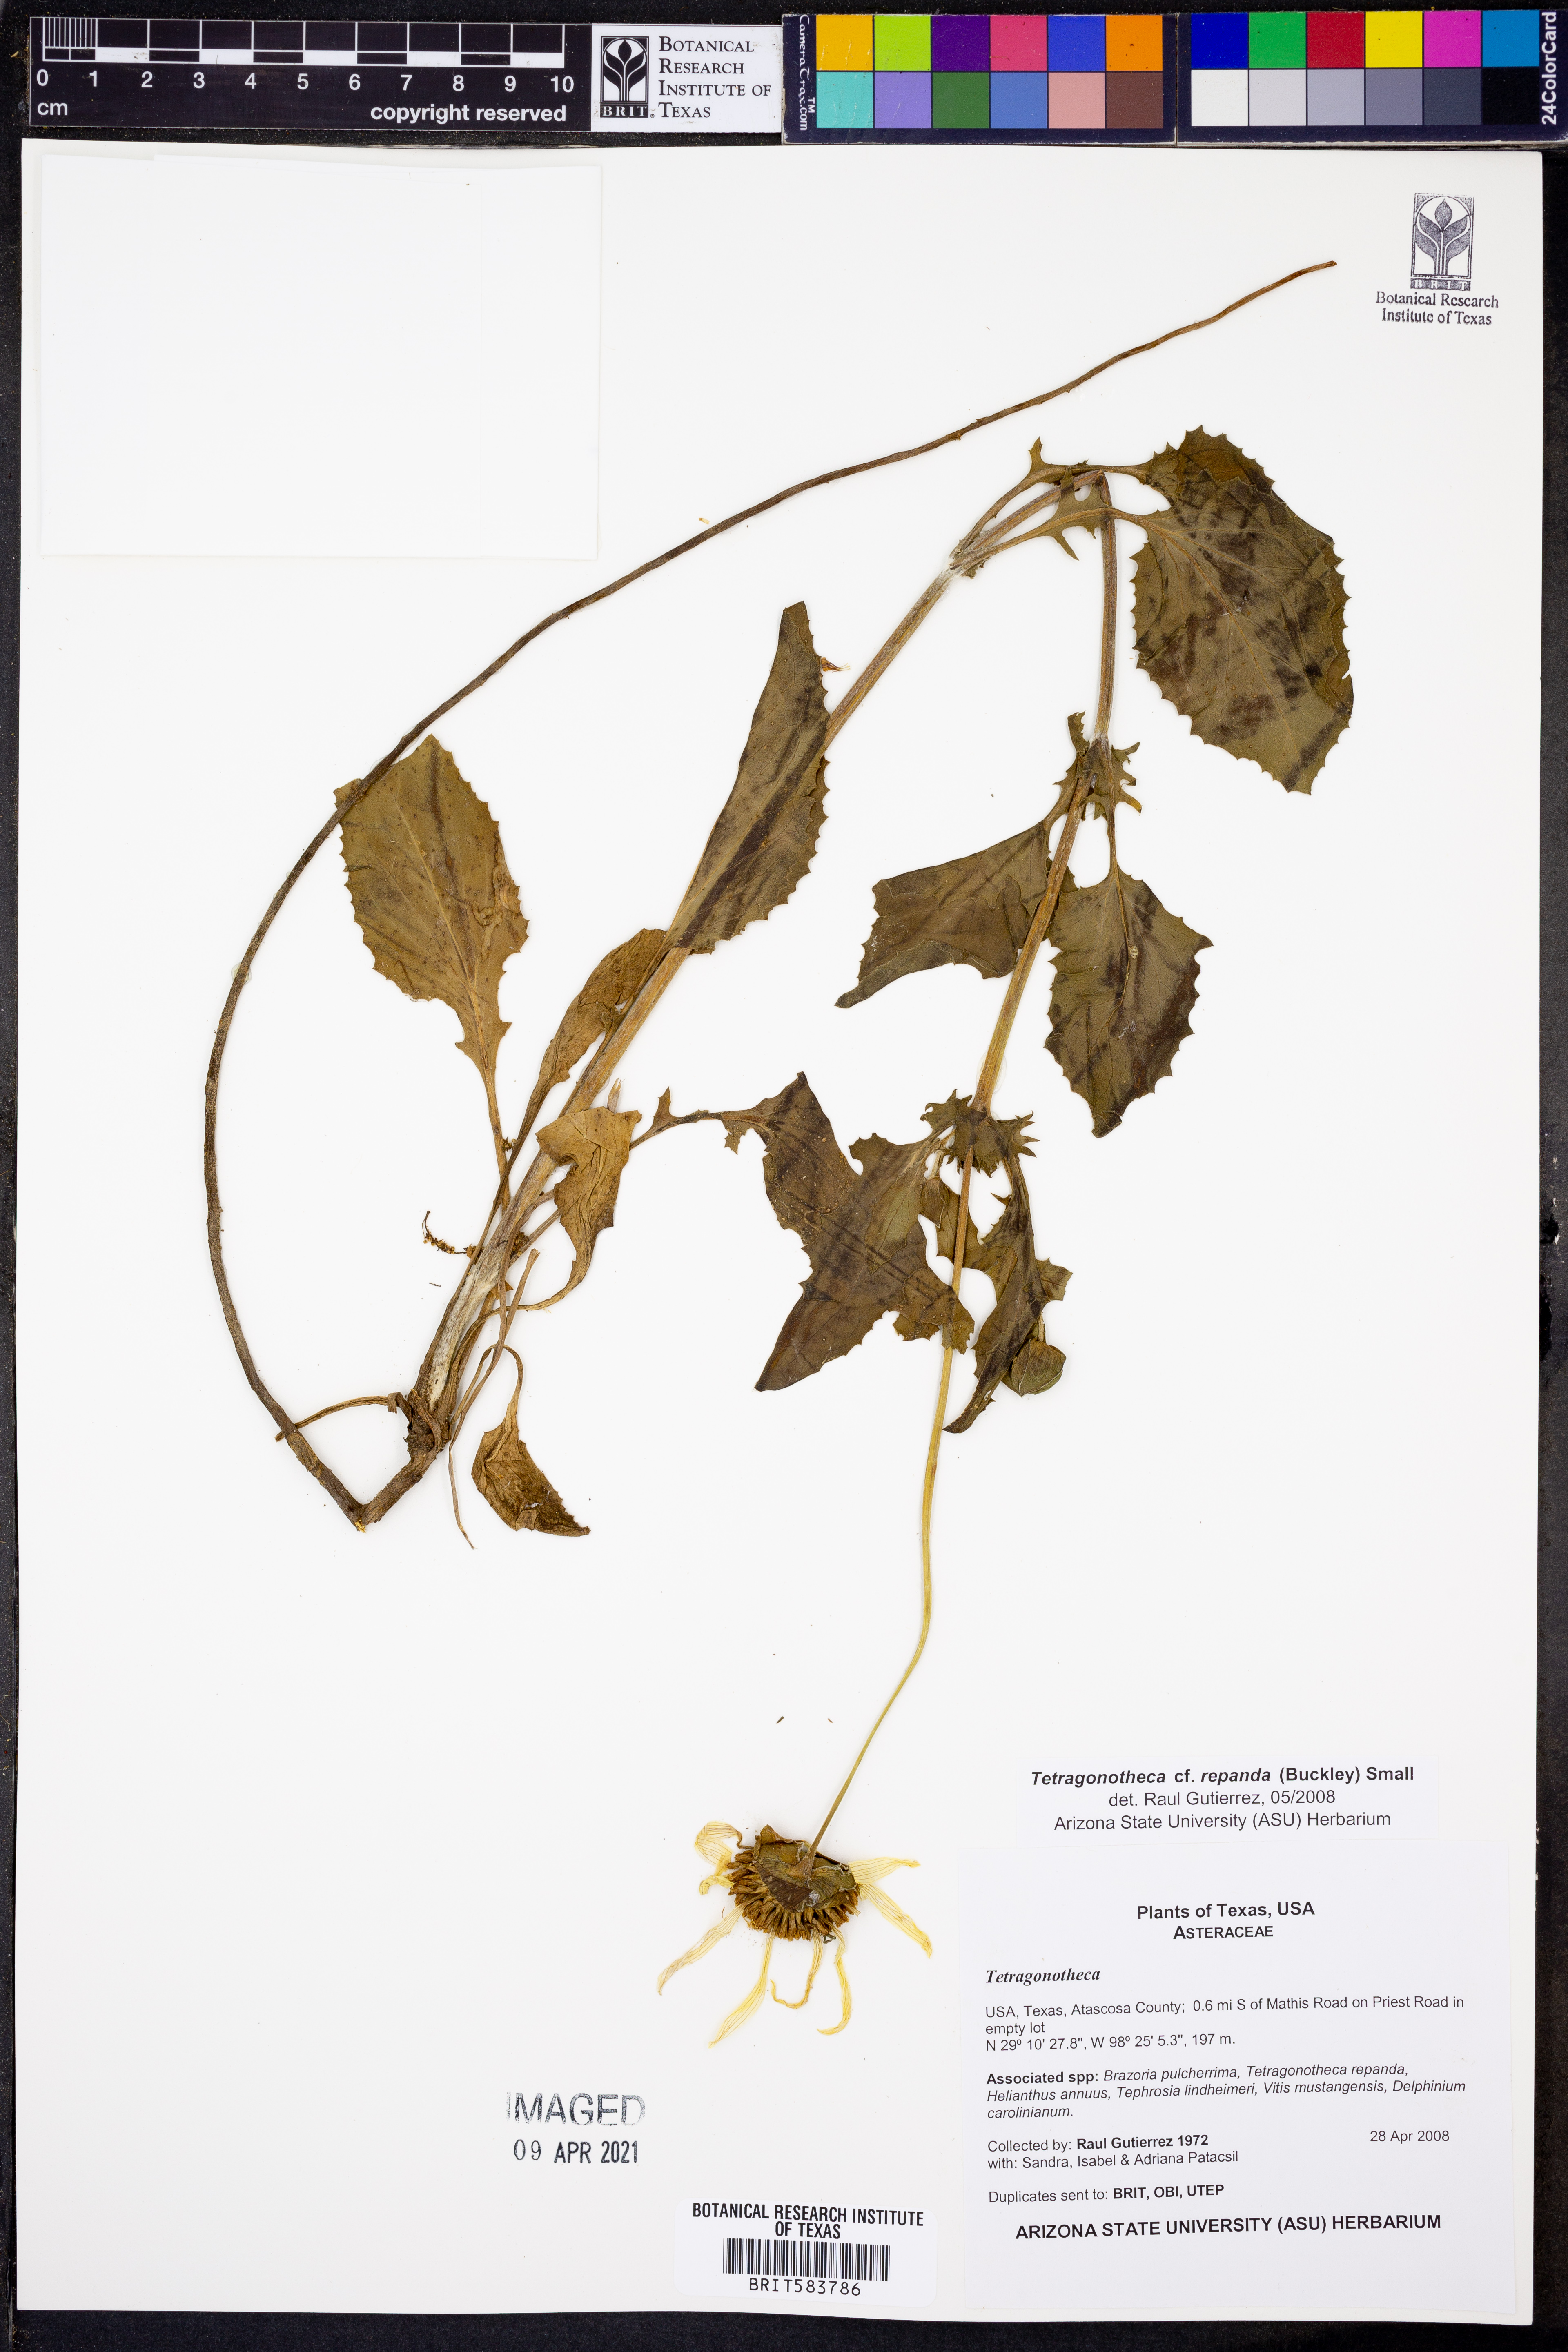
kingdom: Plantae
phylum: Tracheophyta
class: Magnoliopsida
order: Asterales
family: Asteraceae
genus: Tetragonotheca
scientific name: Tetragonotheca repanda
